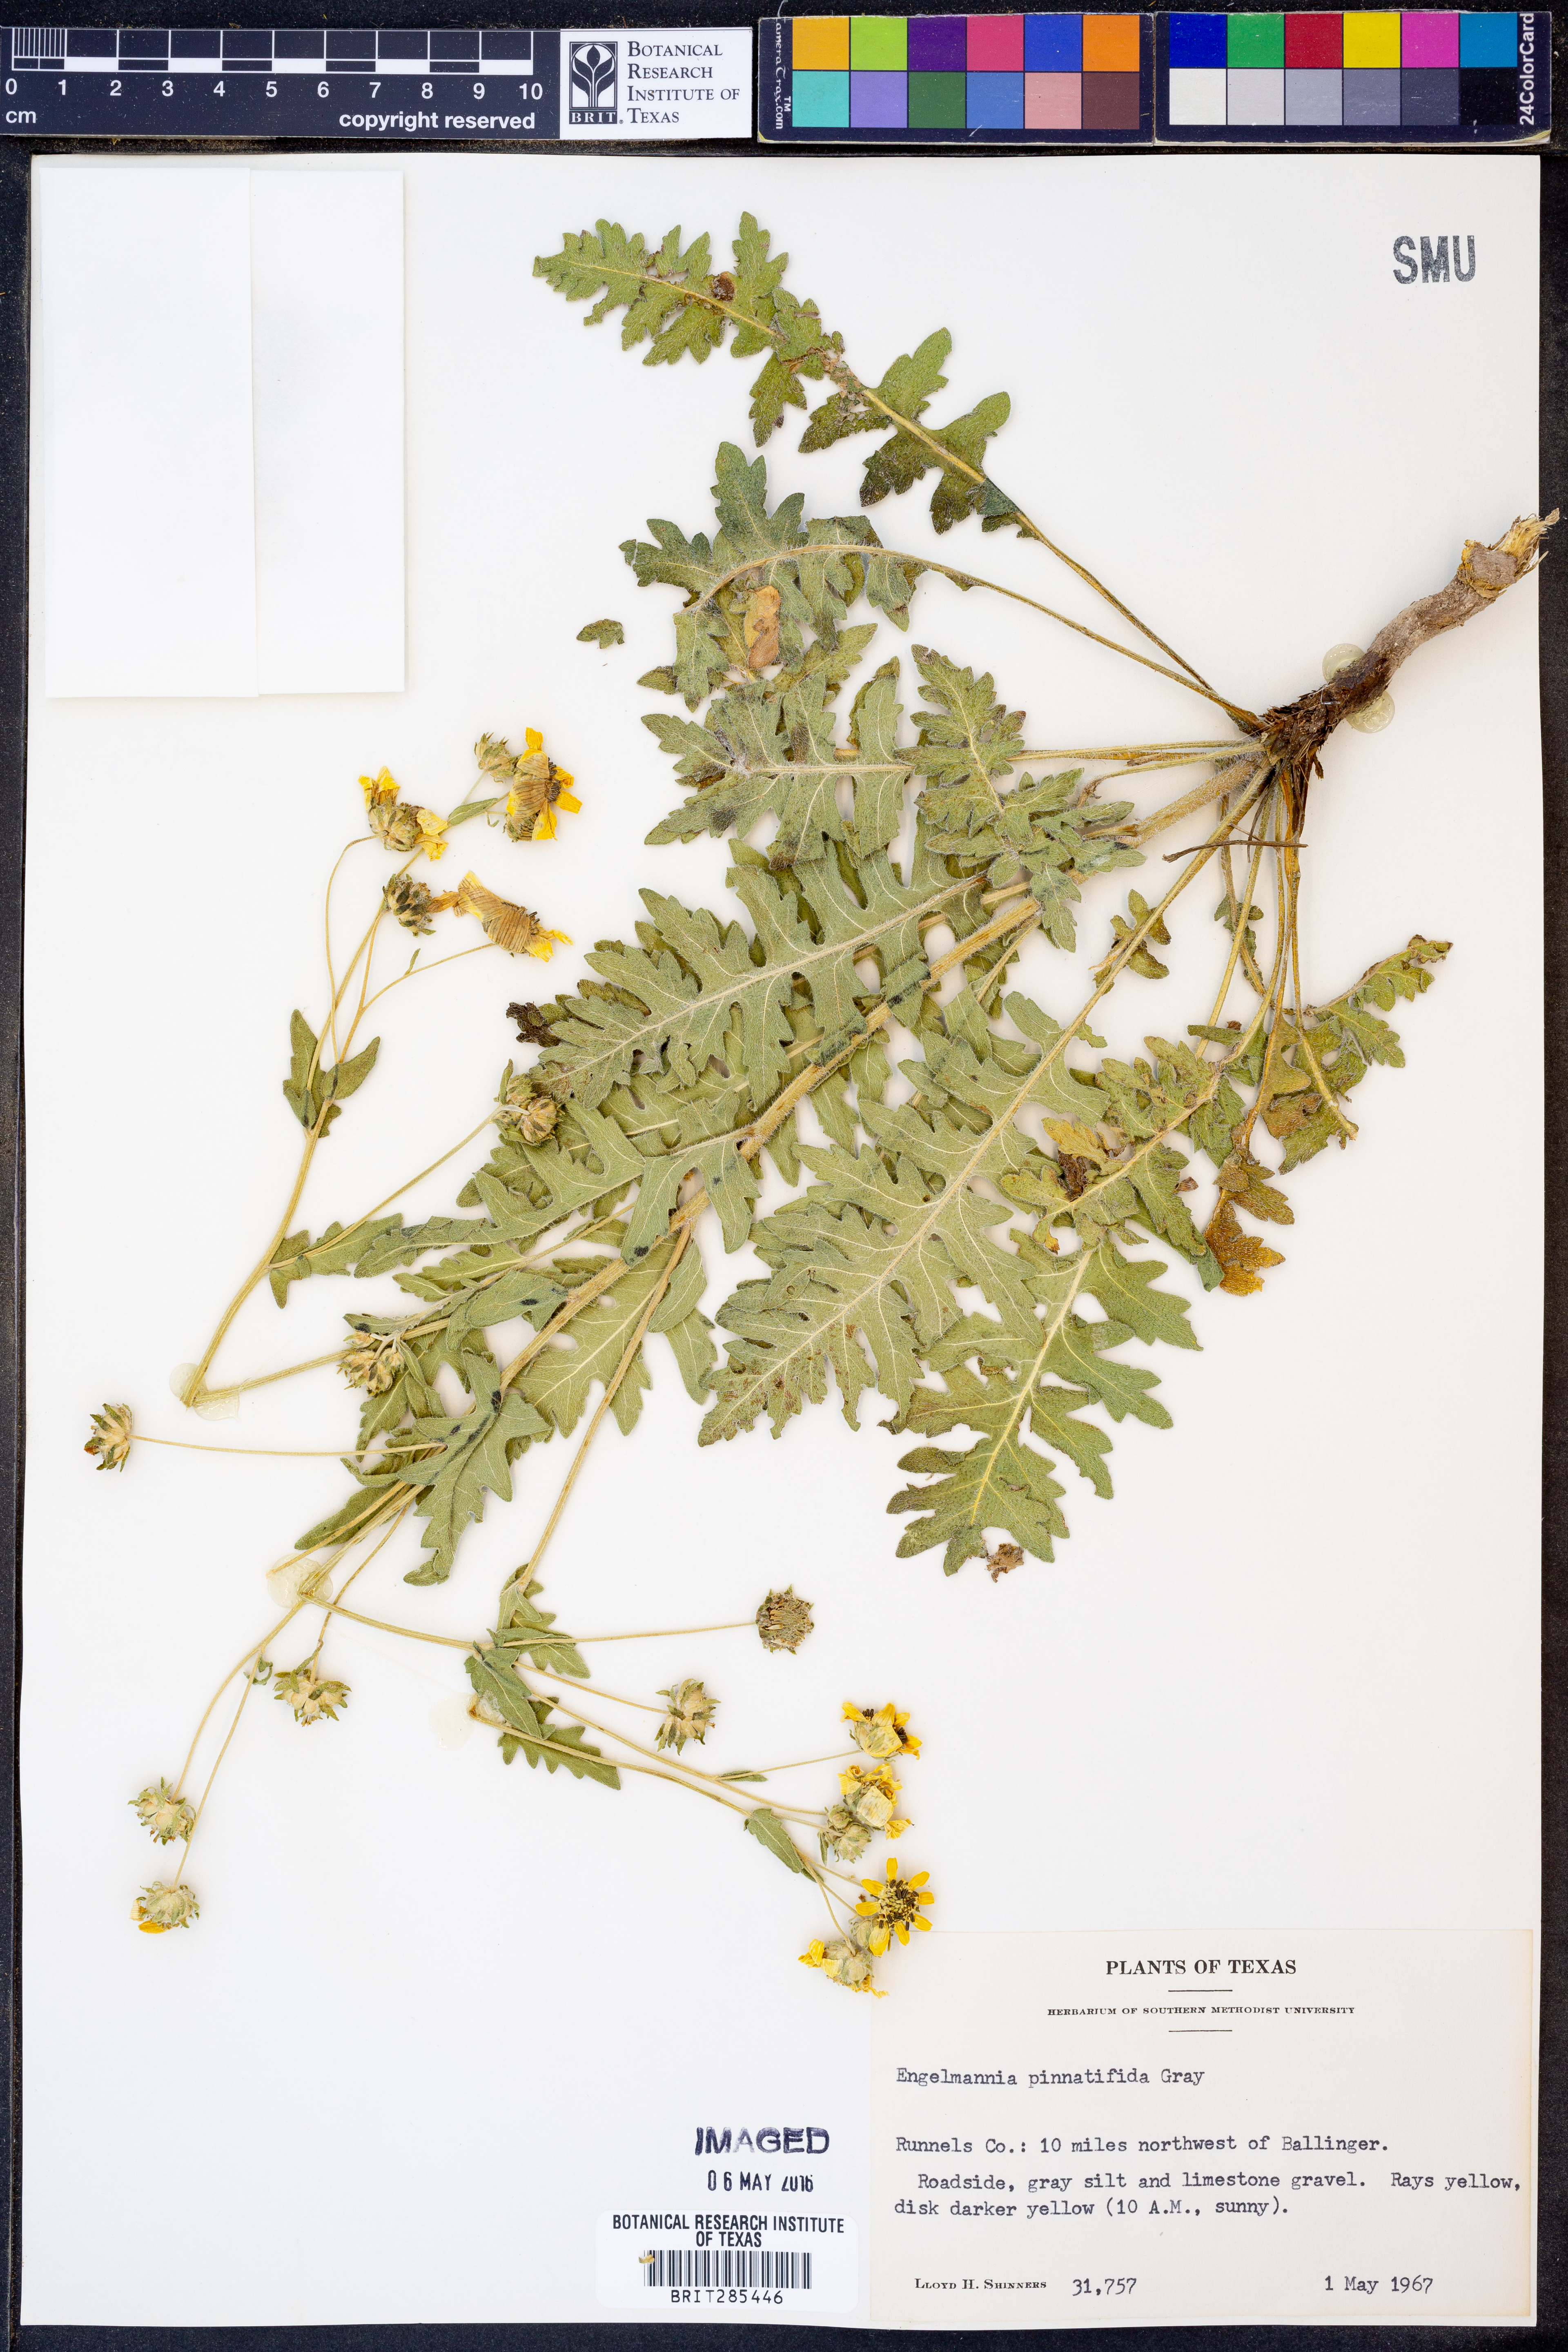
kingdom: Plantae
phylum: Tracheophyta
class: Magnoliopsida
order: Asterales
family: Asteraceae
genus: Engelmannia
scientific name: Engelmannia peristenia
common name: Engelmann's daisy
